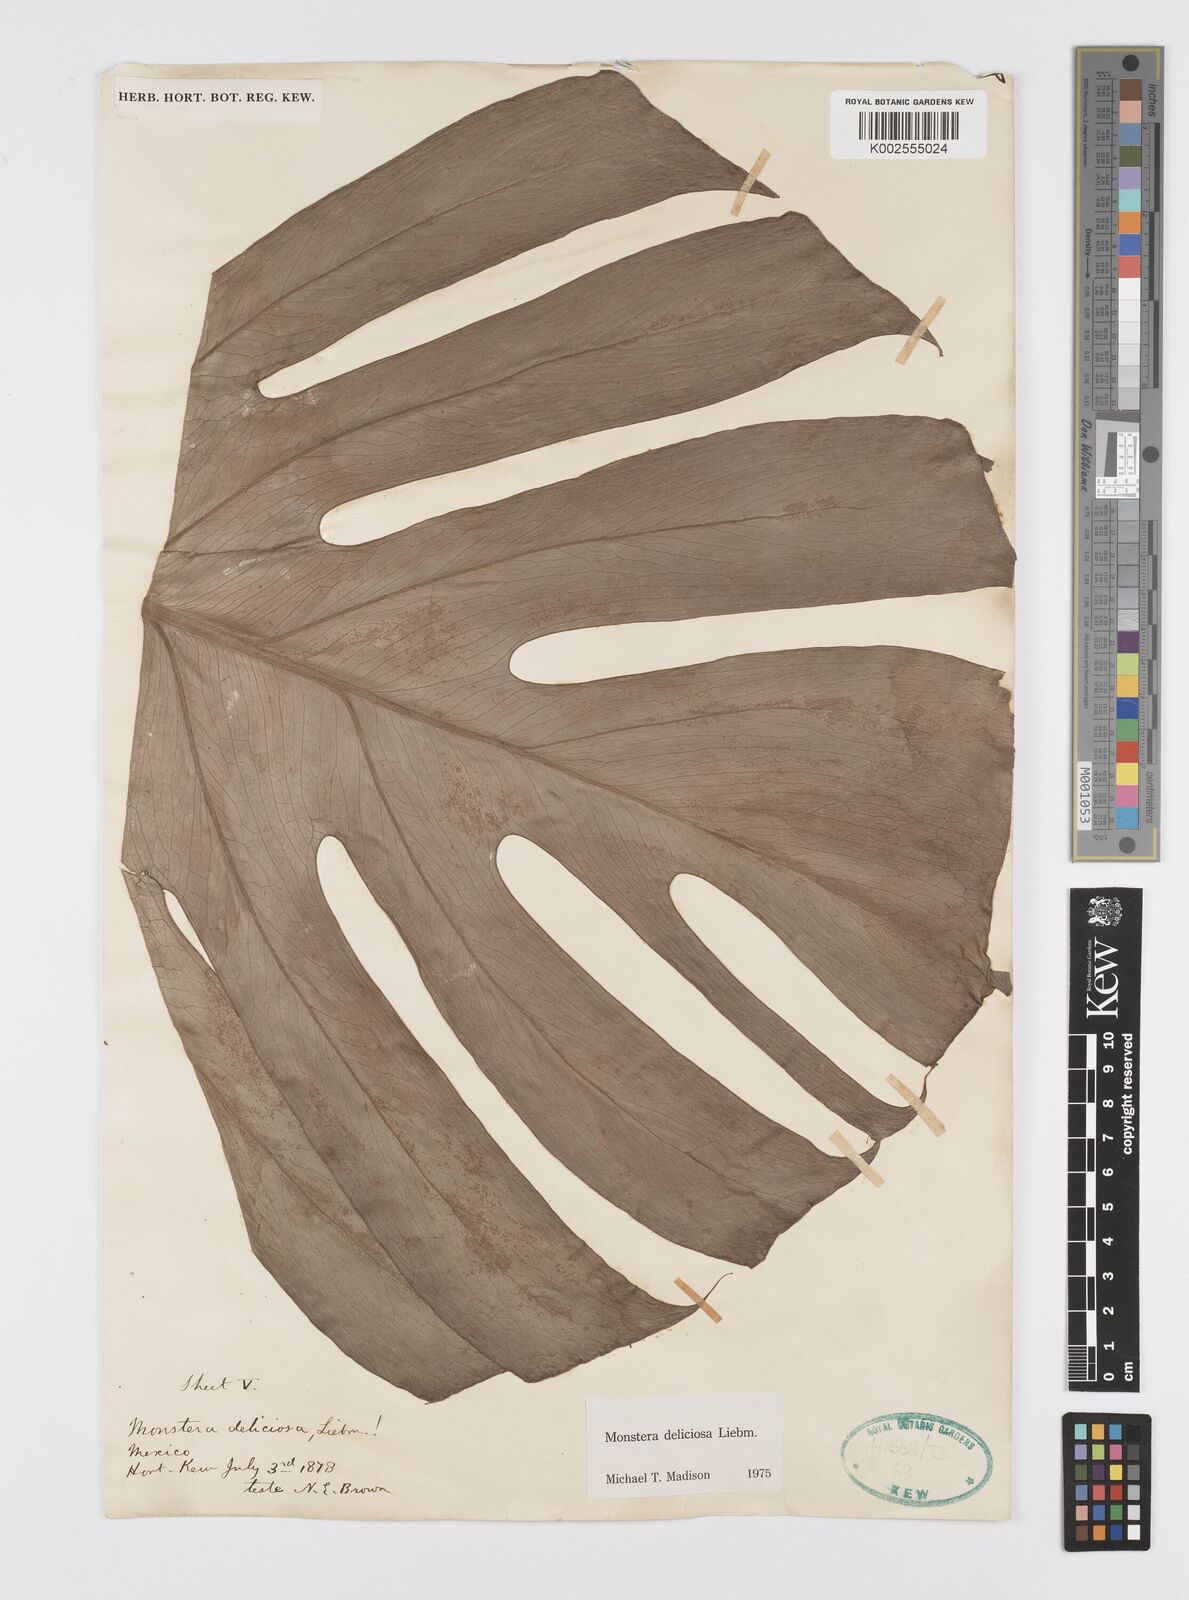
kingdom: Plantae
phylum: Tracheophyta
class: Liliopsida
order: Alismatales
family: Araceae
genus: Monstera
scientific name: Monstera deliciosa
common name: Cut-leaf-philodendron
